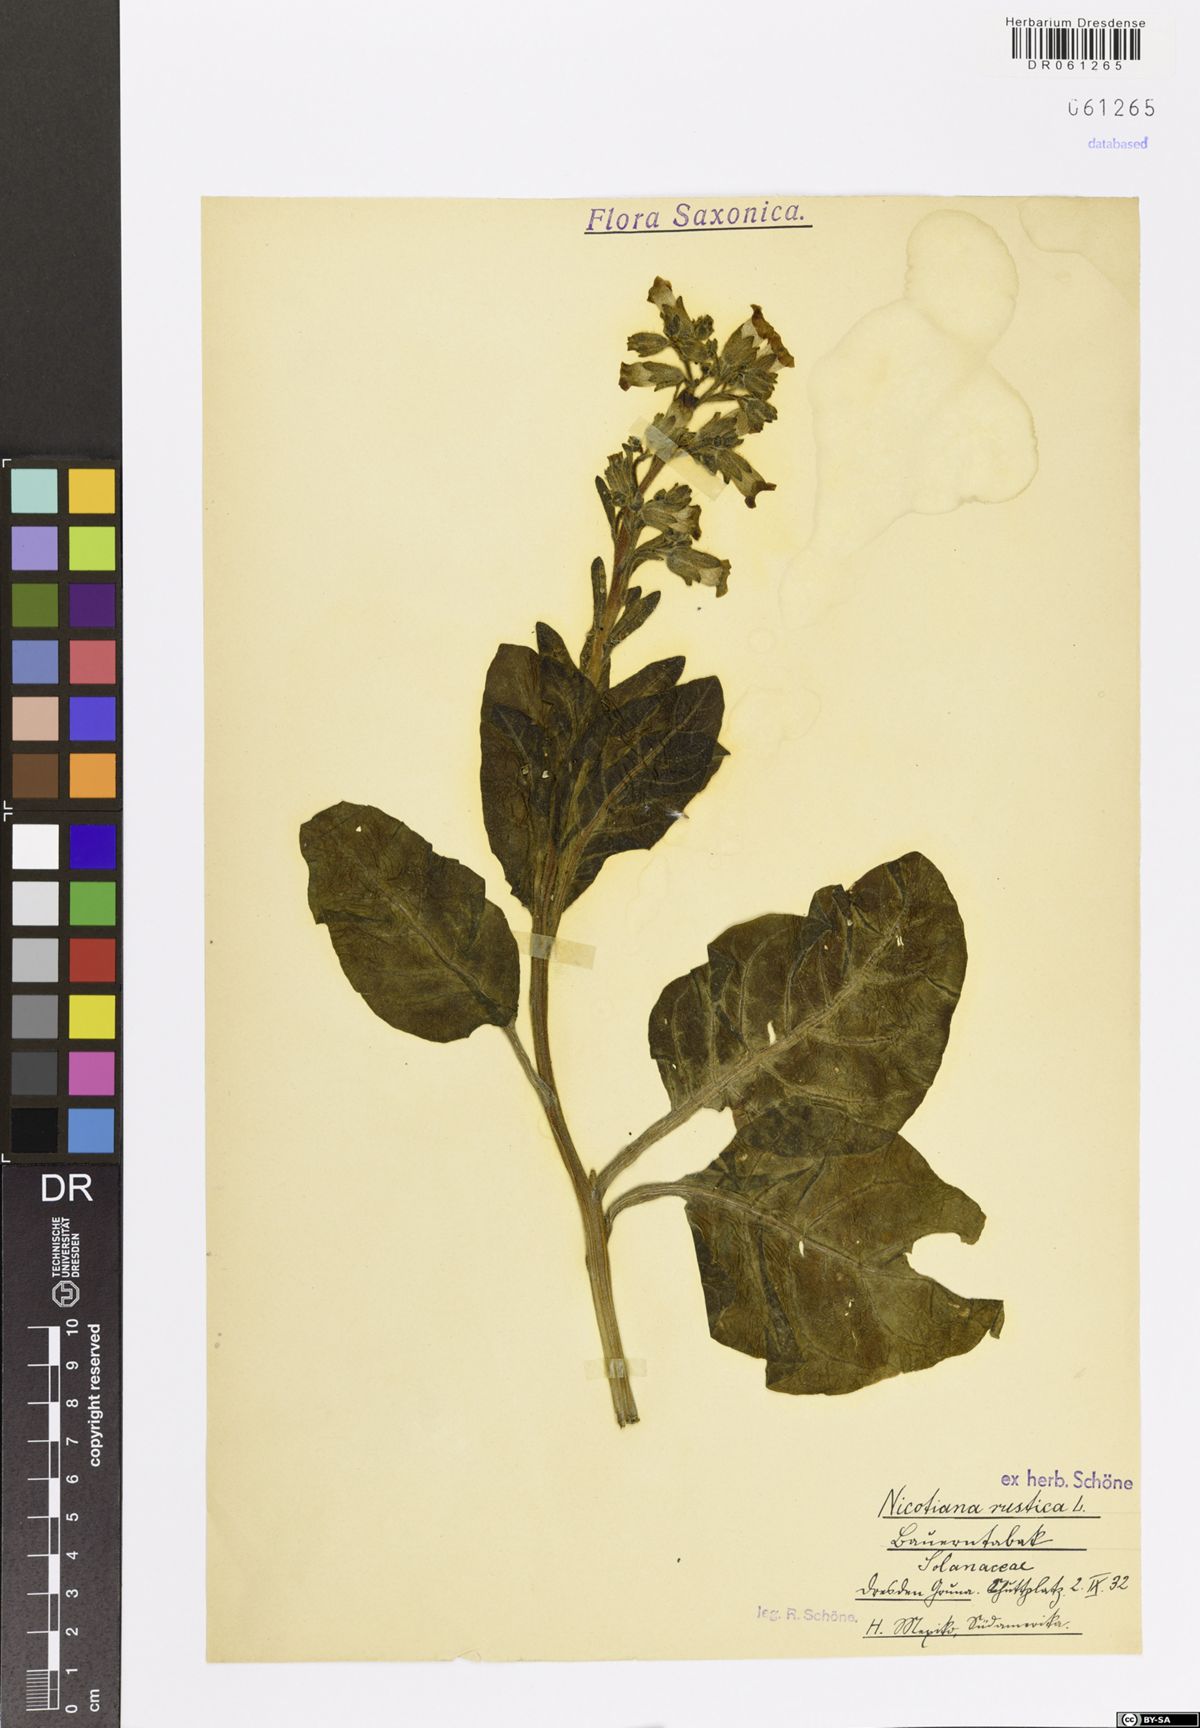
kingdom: Plantae
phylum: Tracheophyta
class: Magnoliopsida
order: Solanales
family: Solanaceae
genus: Nicotiana
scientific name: Nicotiana rustica
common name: Wild tobacco
